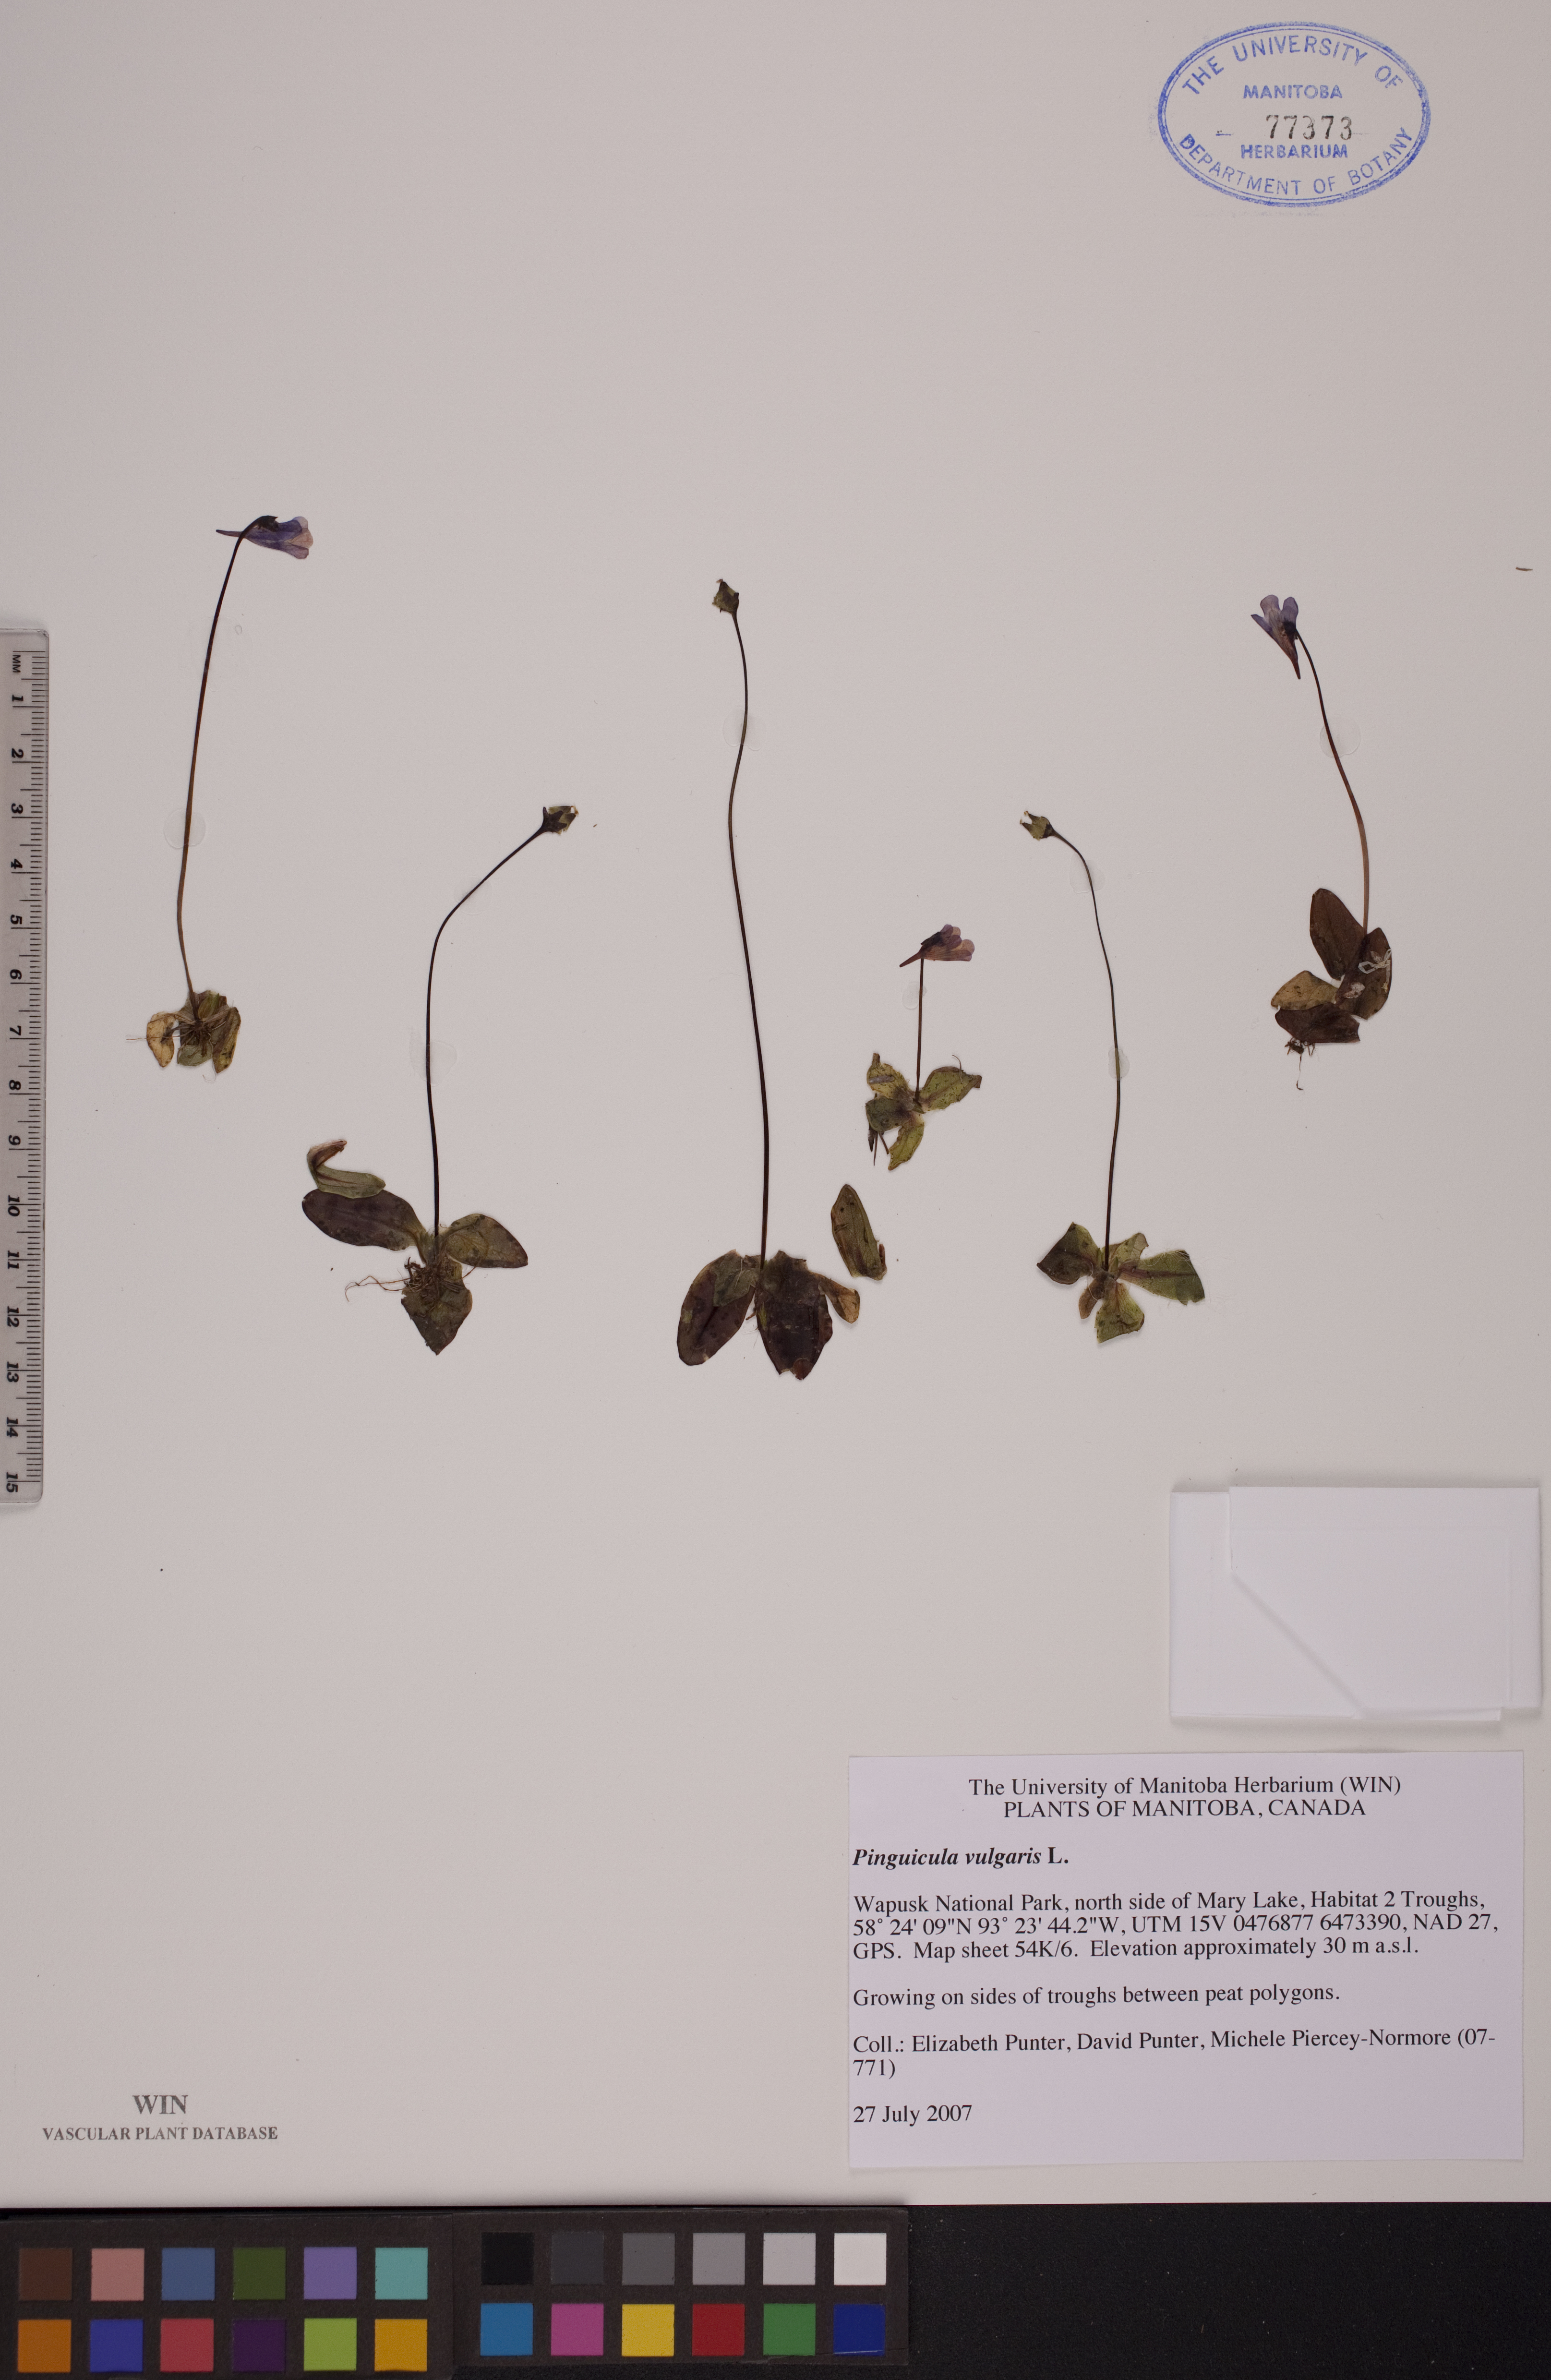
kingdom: Plantae
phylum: Tracheophyta
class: Magnoliopsida
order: Lamiales
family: Lentibulariaceae
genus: Pinguicula
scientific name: Pinguicula vulgaris
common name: Common butterwort
